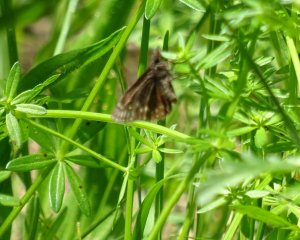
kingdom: Animalia
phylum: Arthropoda
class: Insecta
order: Lepidoptera
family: Hesperiidae
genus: Erynnis
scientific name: Erynnis
